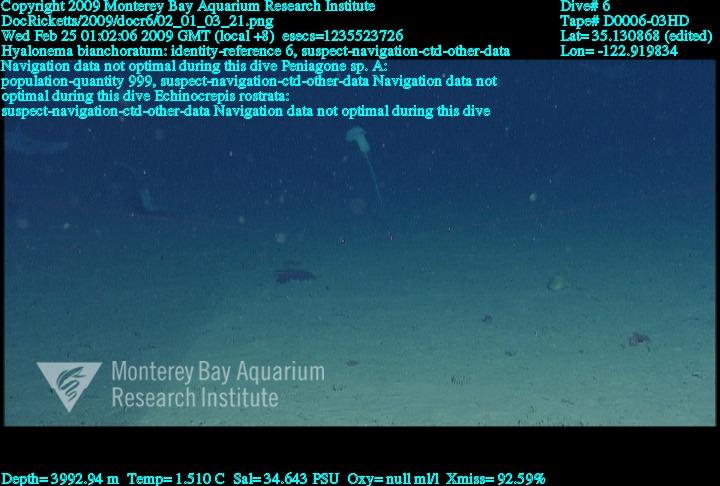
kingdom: Animalia
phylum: Porifera
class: Hexactinellida
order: Amphidiscosida
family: Hyalonematidae
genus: Hyalonema
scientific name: Hyalonema bianchoratum
